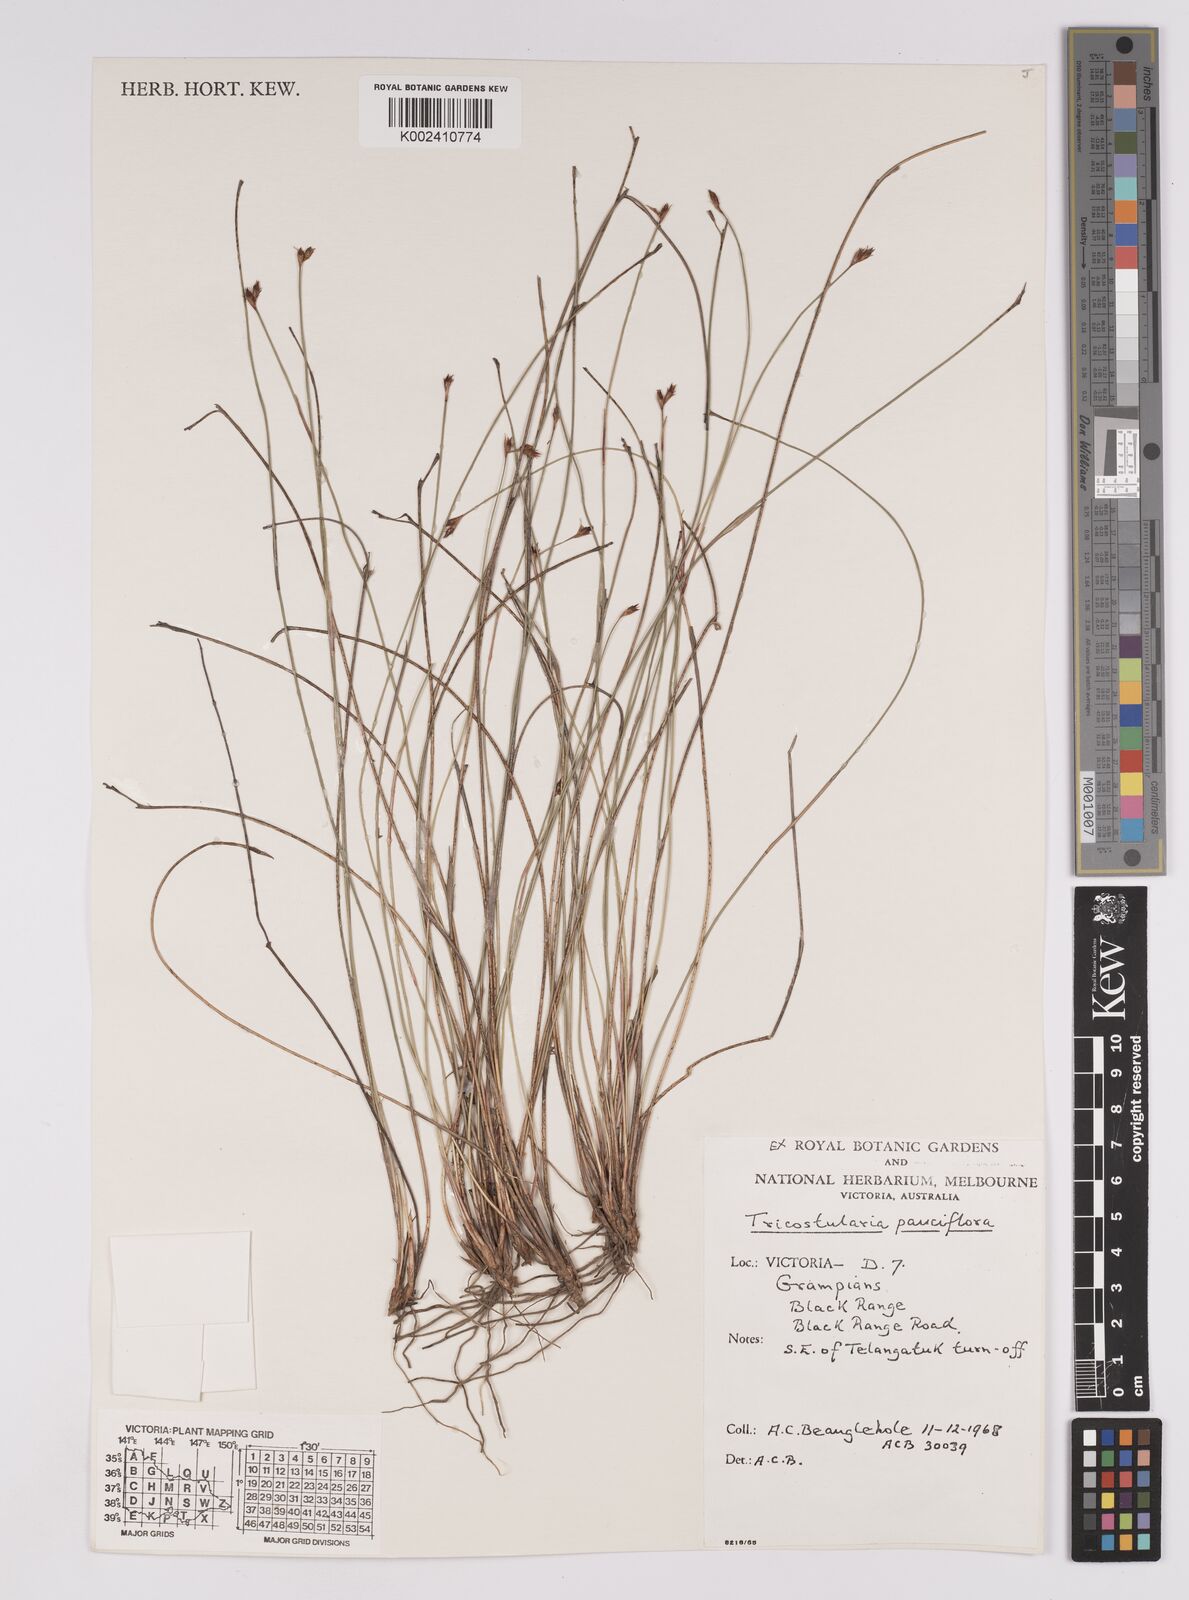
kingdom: Plantae
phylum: Tracheophyta
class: Liliopsida
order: Poales
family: Cyperaceae
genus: Tricostularia
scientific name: Tricostularia pauciflora
